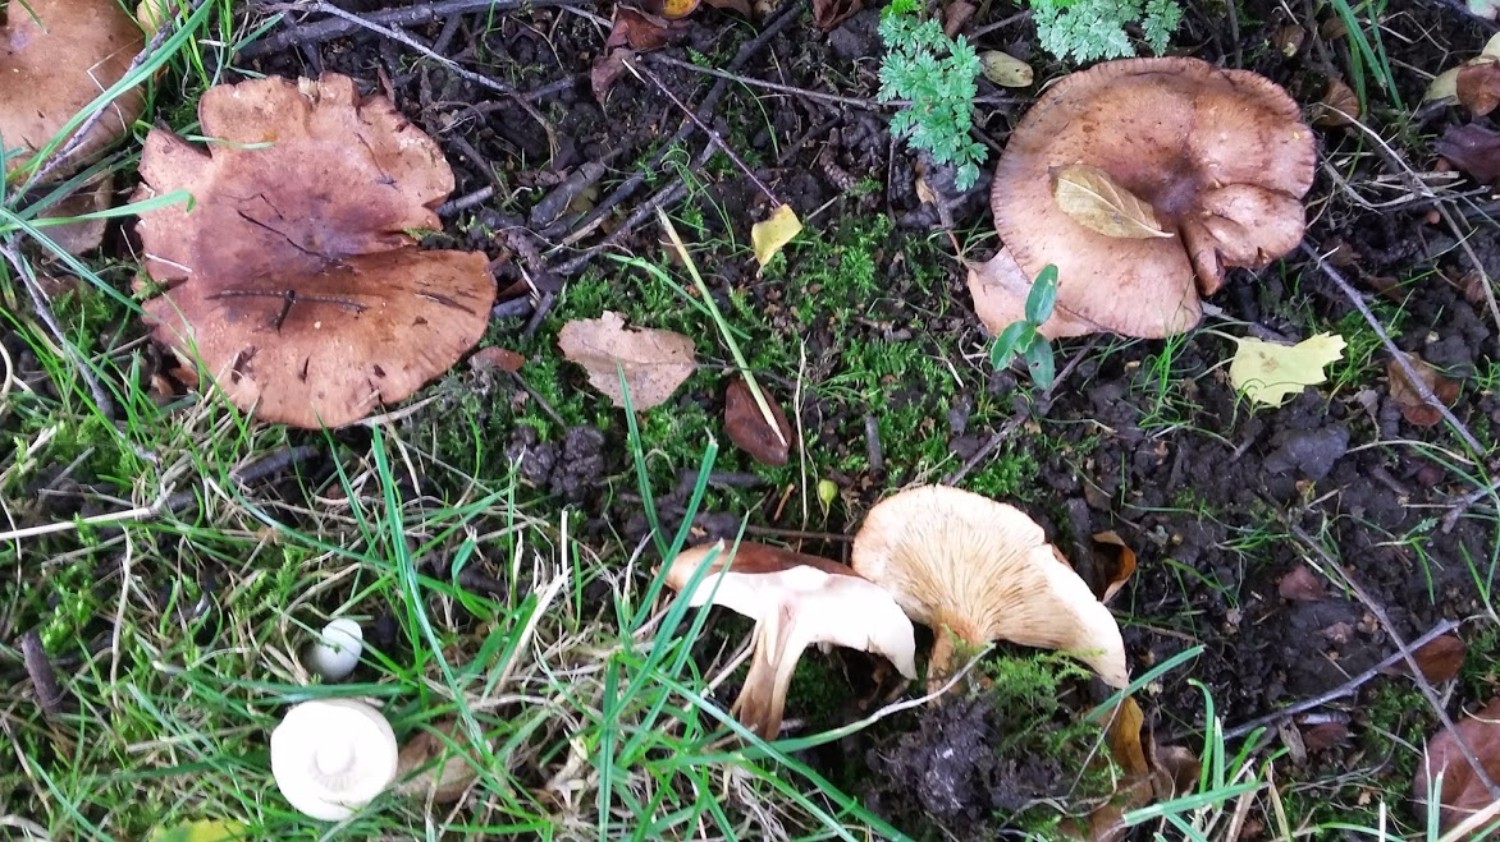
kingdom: Fungi
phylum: Basidiomycota
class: Agaricomycetes
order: Agaricales
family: Tricholomataceae
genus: Tricholoma
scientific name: Tricholoma fulvum
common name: birke-ridderhat
